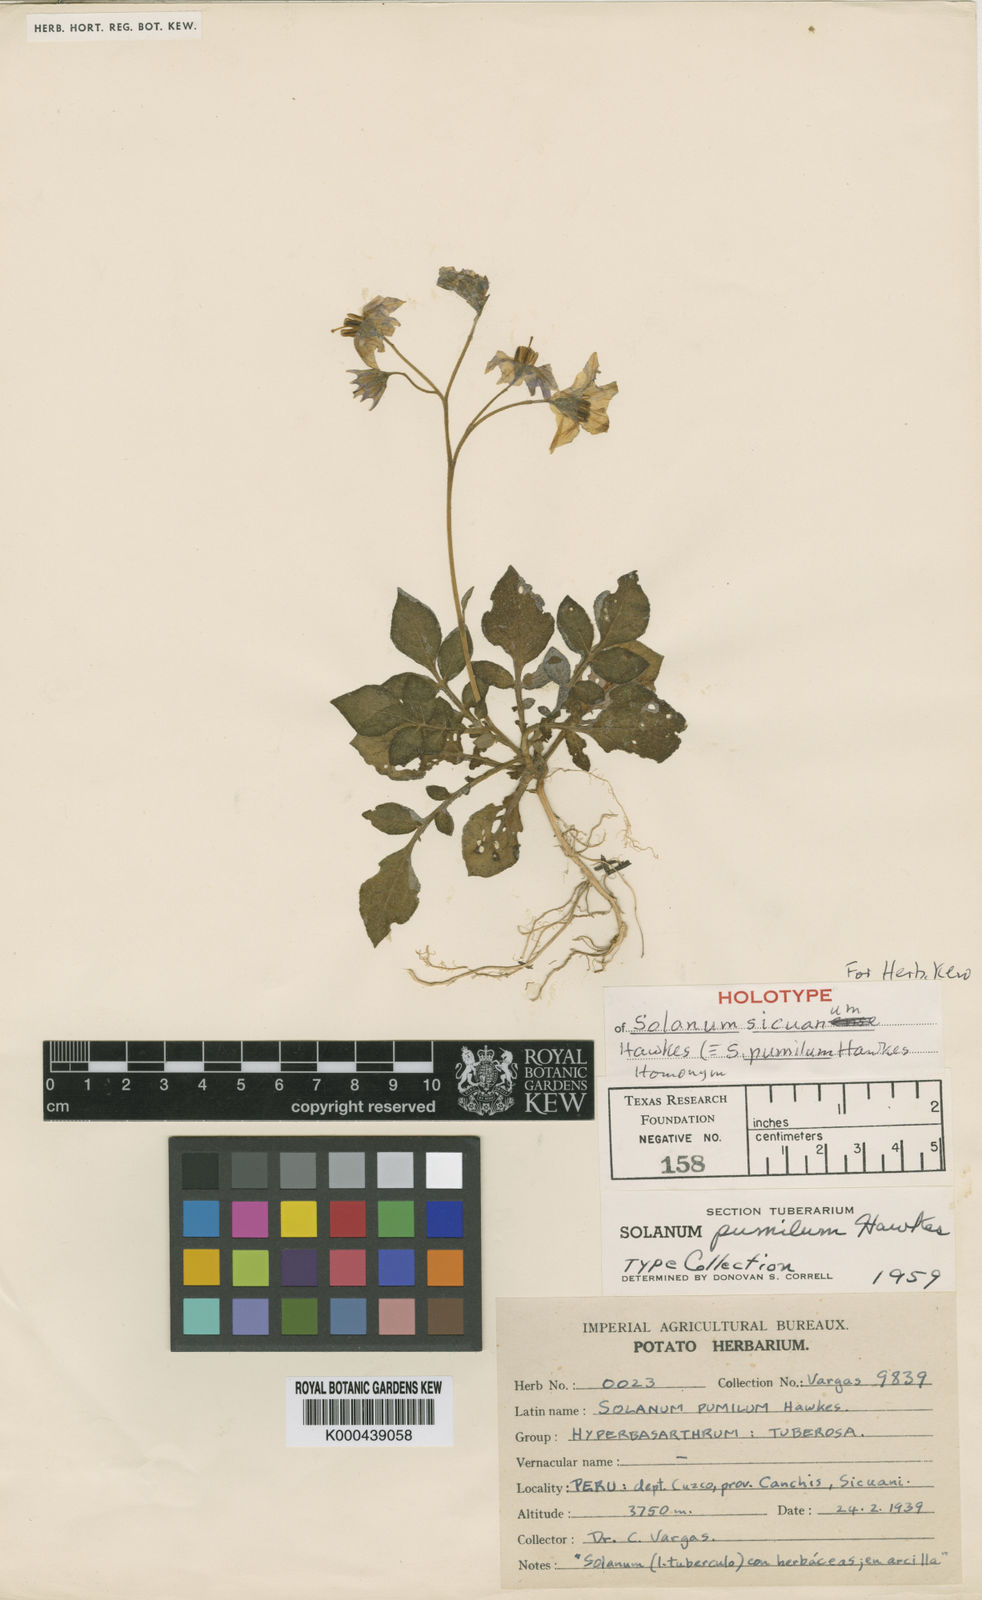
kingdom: Plantae
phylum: Tracheophyta
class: Magnoliopsida
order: Solanales
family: Solanaceae
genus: Solanum
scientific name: Solanum candolleanum
